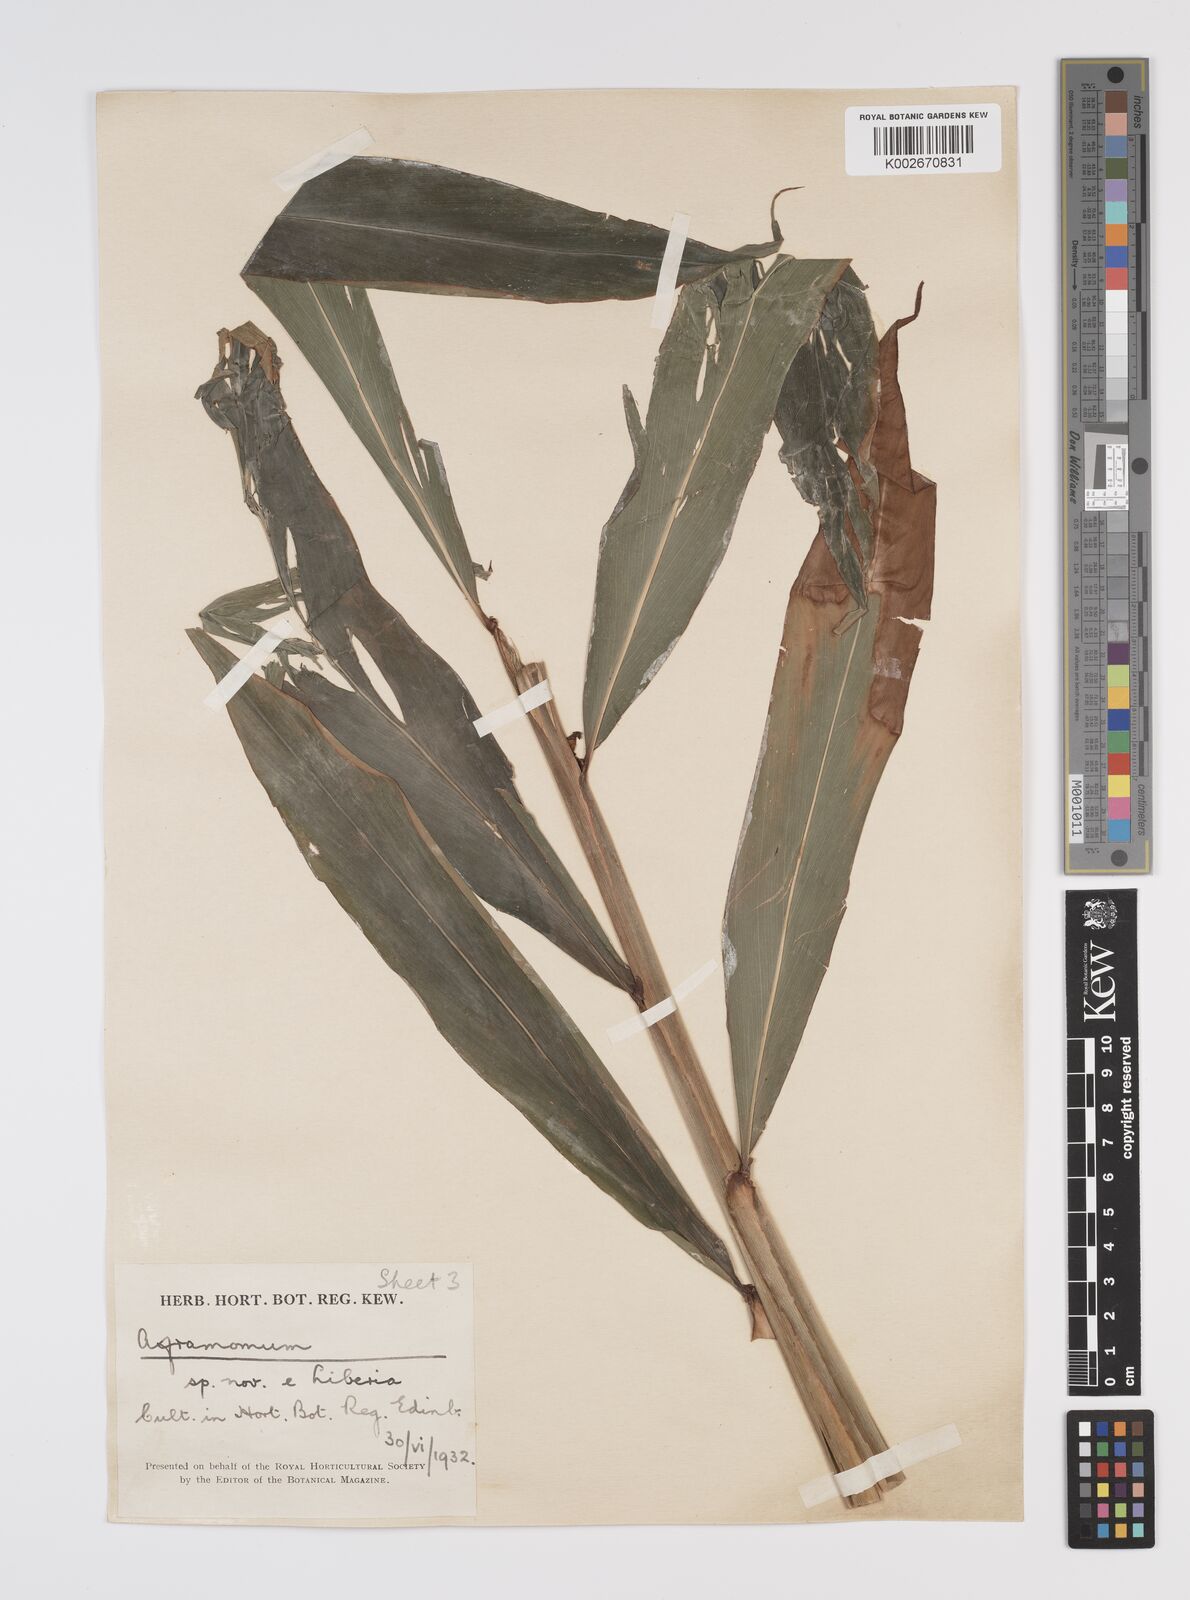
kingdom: Plantae
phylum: Tracheophyta
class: Liliopsida
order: Zingiberales
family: Zingiberaceae
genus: Aframomum
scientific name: Aframomum cereum
